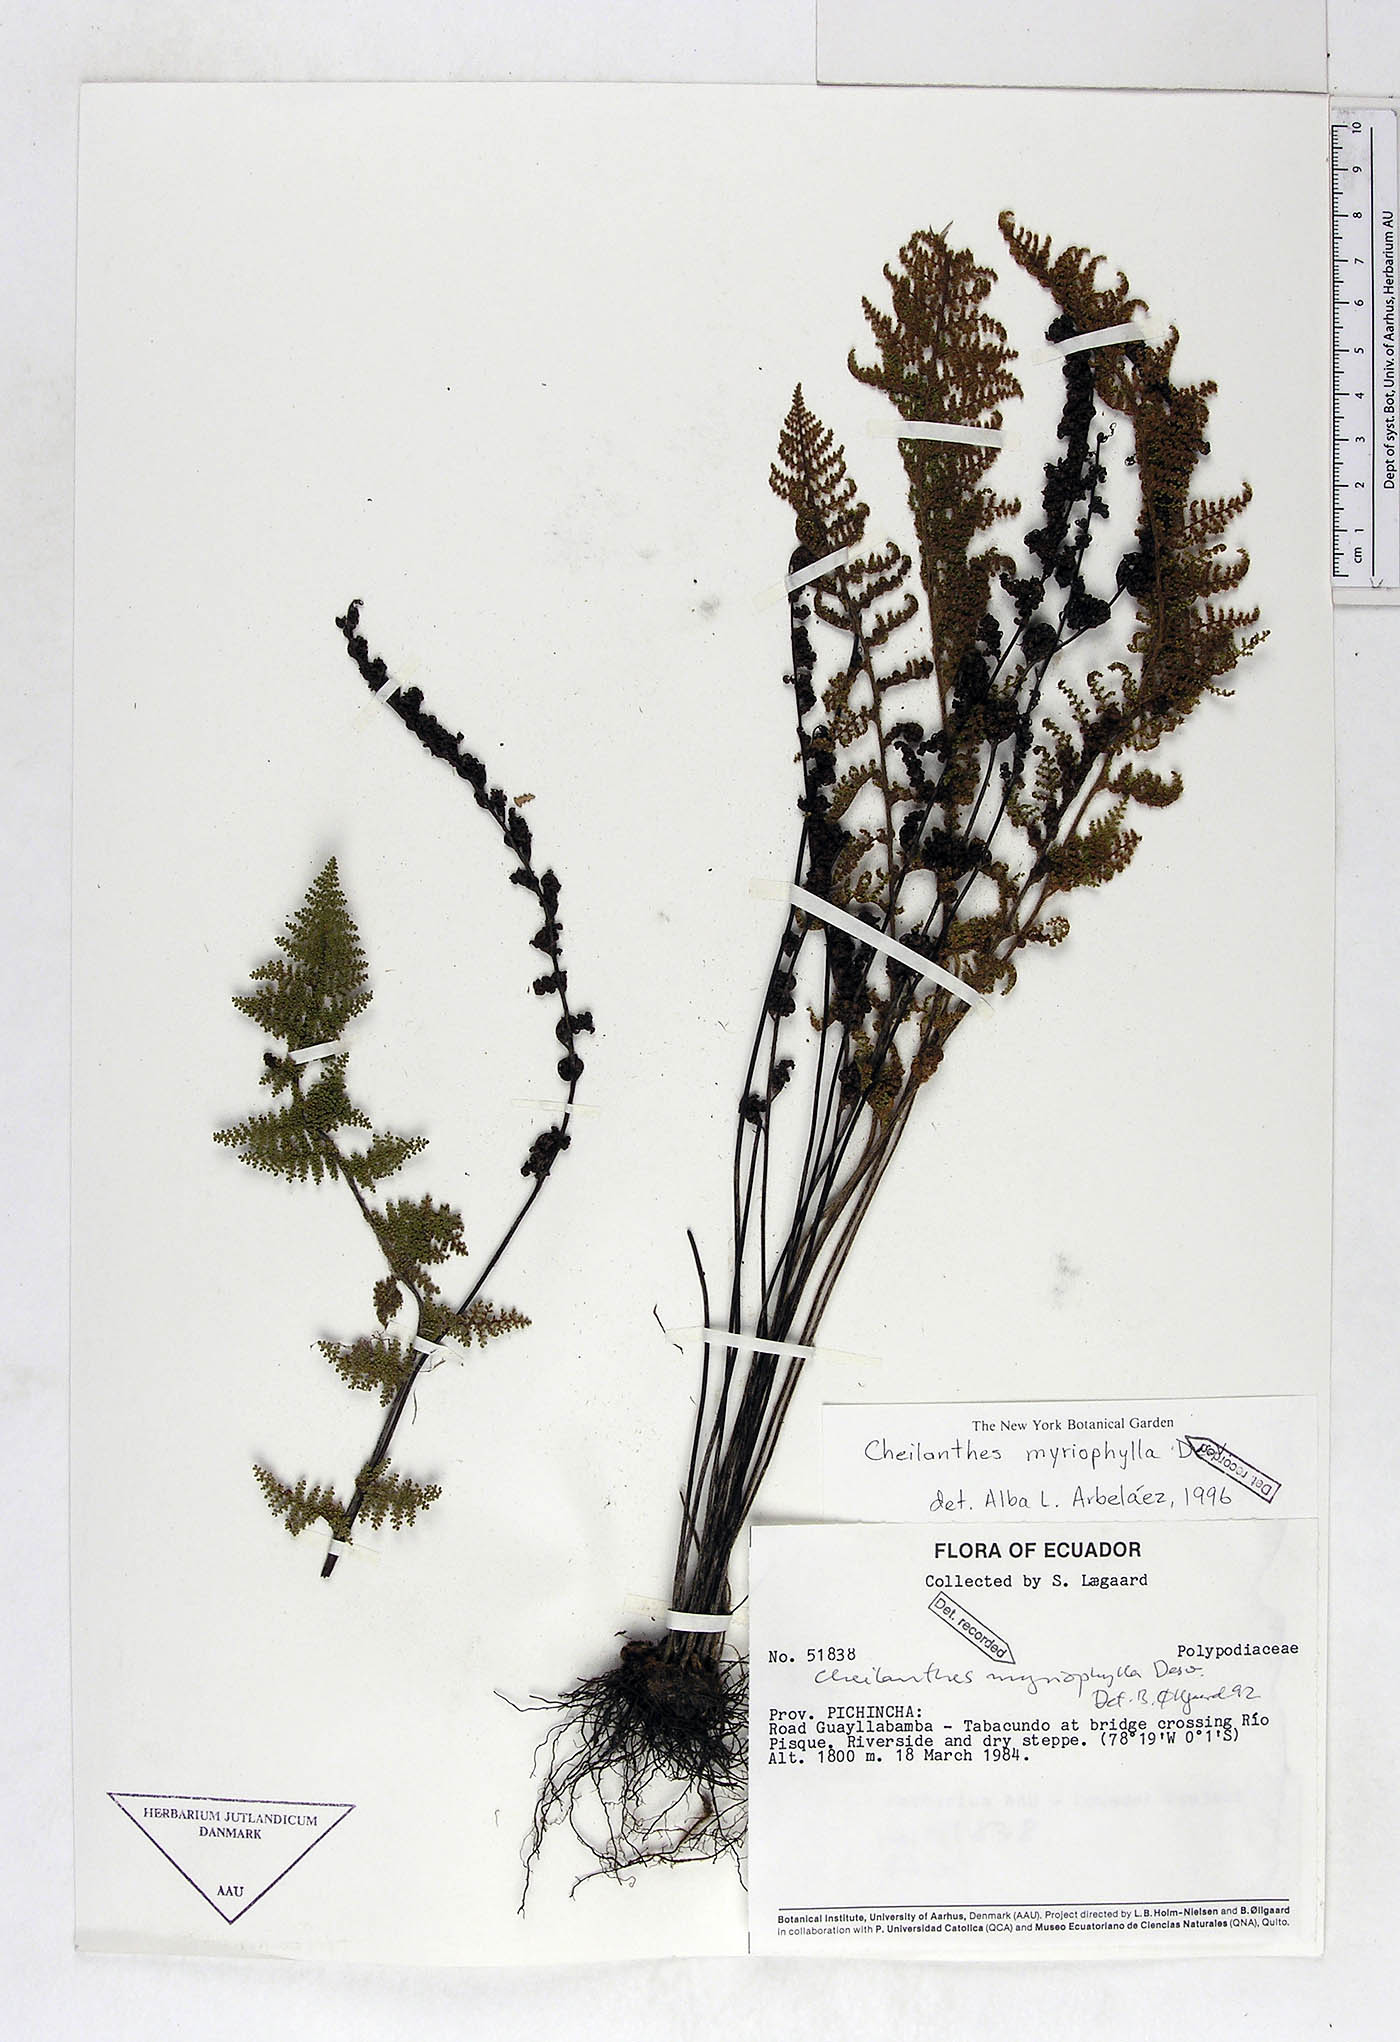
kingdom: Plantae
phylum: Tracheophyta
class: Polypodiopsida
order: Polypodiales
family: Pteridaceae
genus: Myriopteris
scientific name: Myriopteris myriophylla
